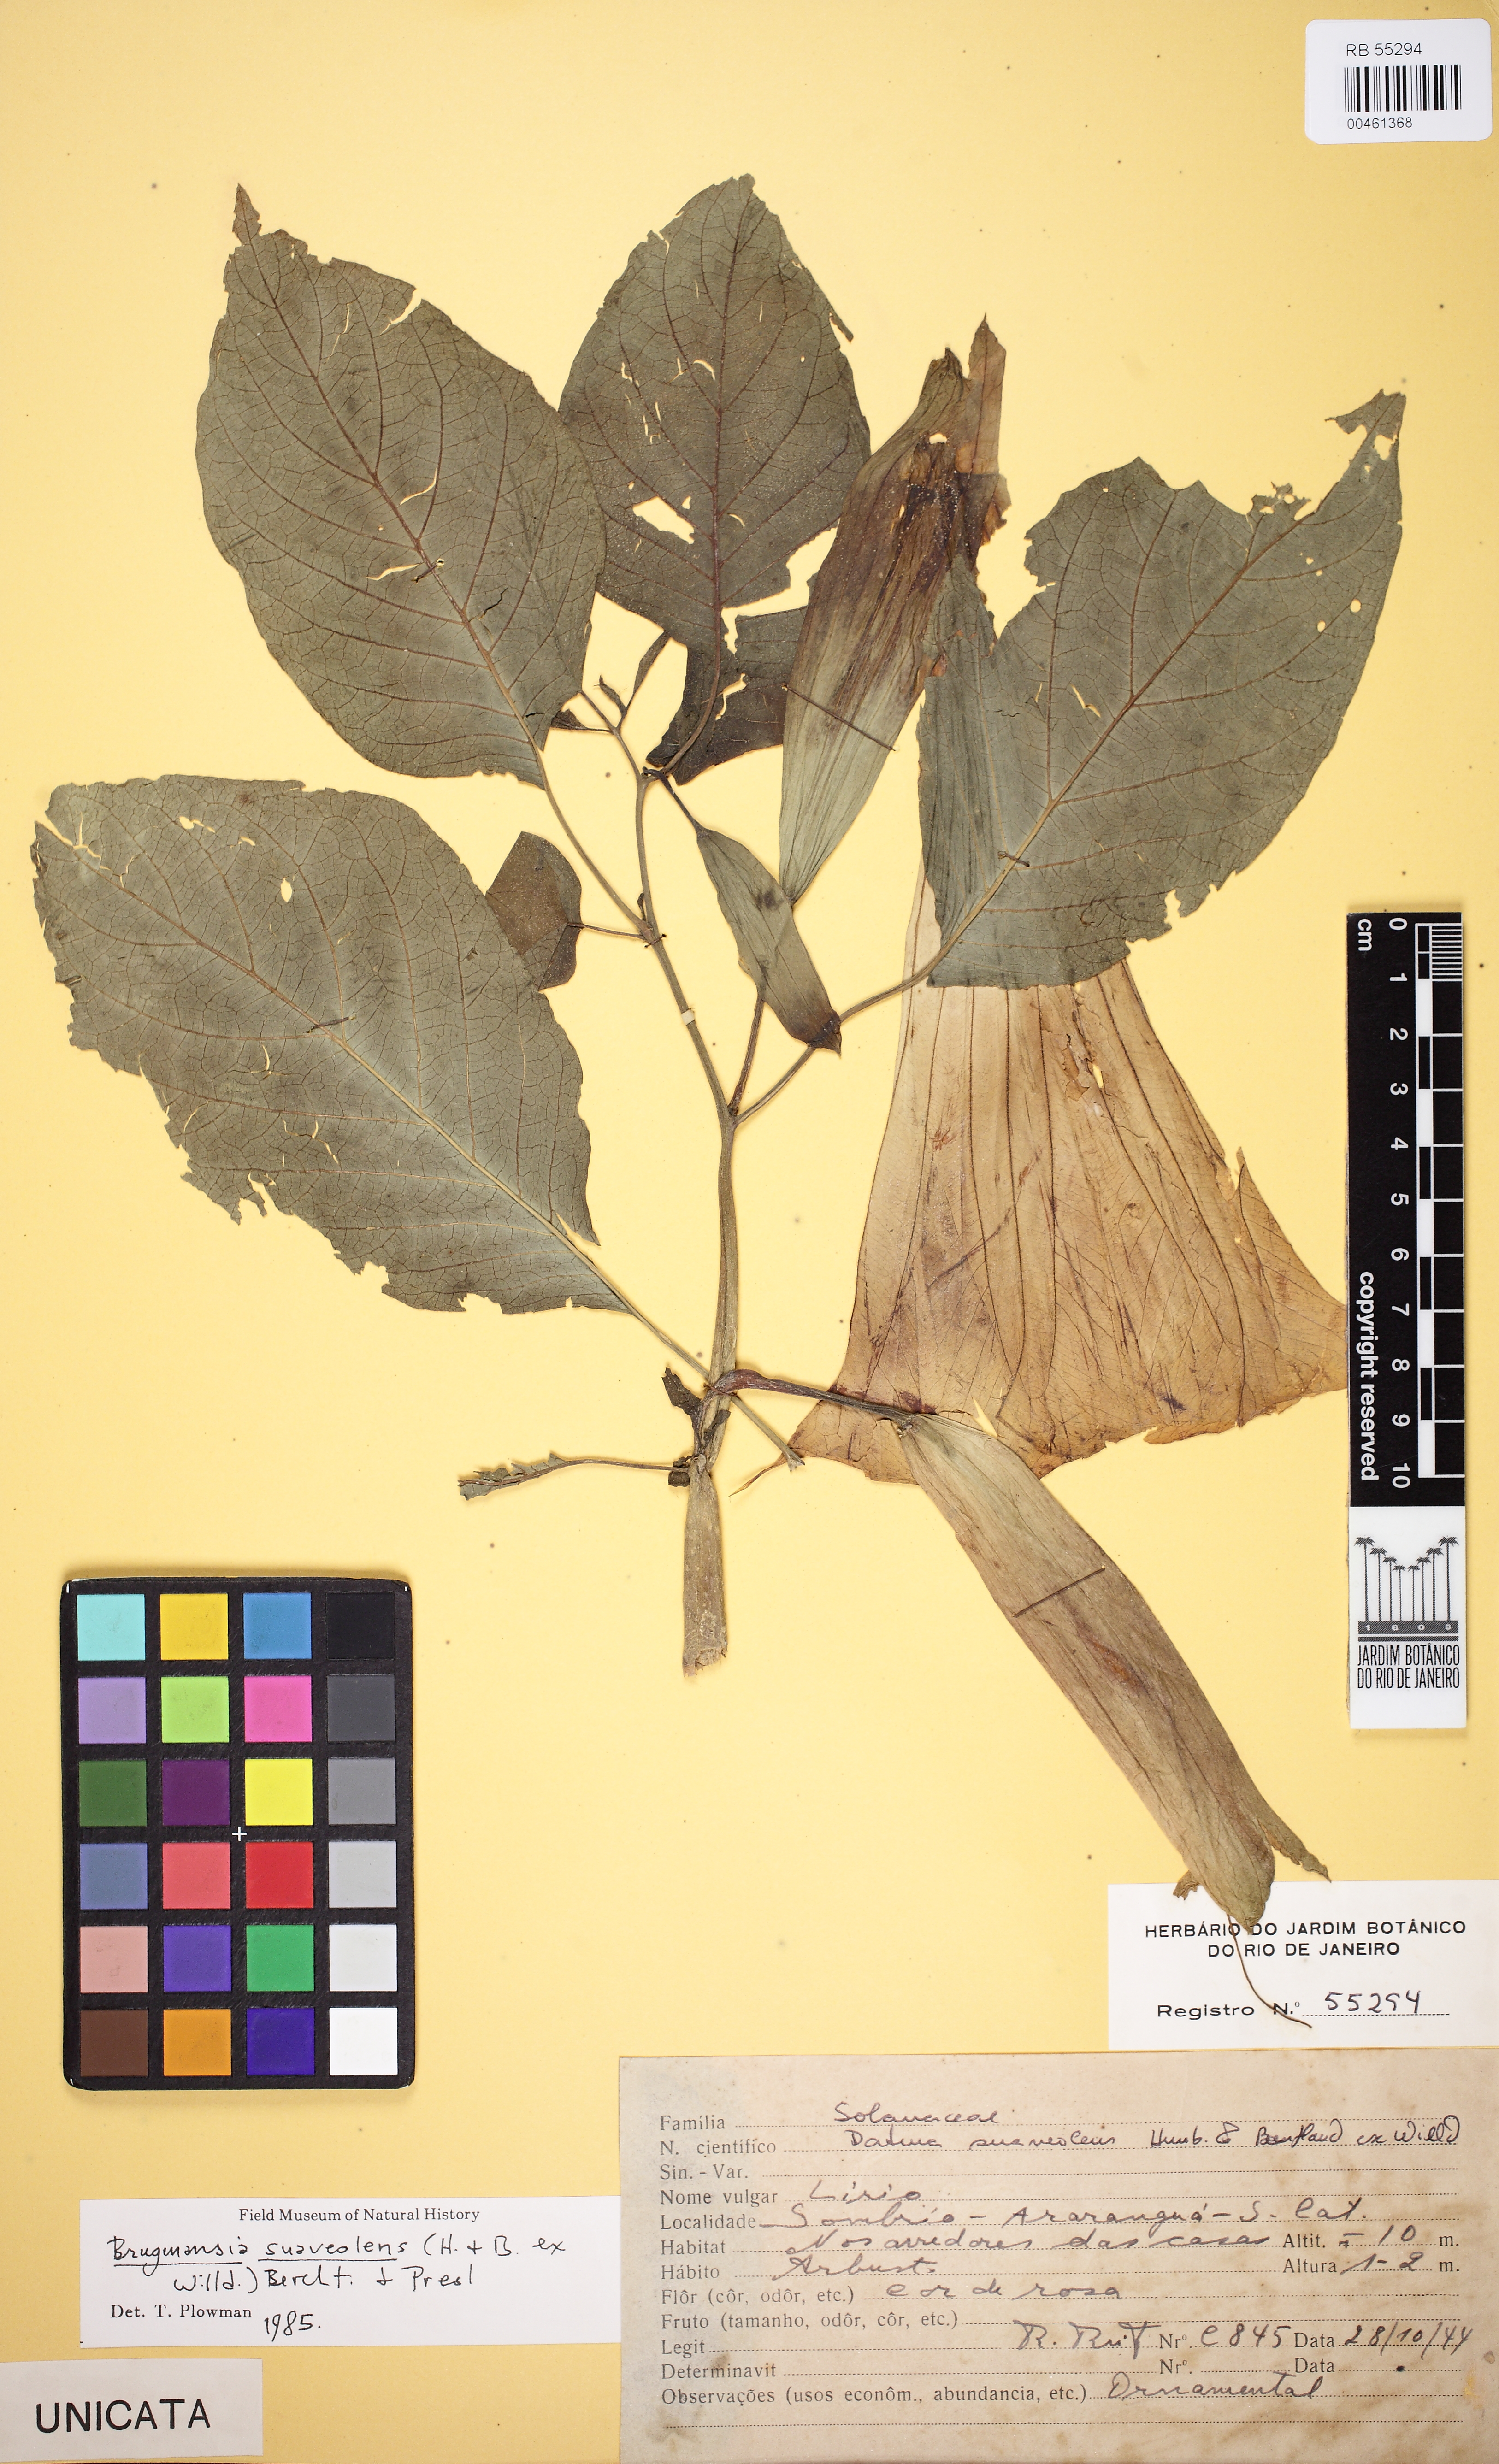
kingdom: Plantae
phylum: Tracheophyta
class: Magnoliopsida
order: Solanales
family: Solanaceae
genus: Brugmansia
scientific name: Brugmansia suaveolens
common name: Angel's tears
